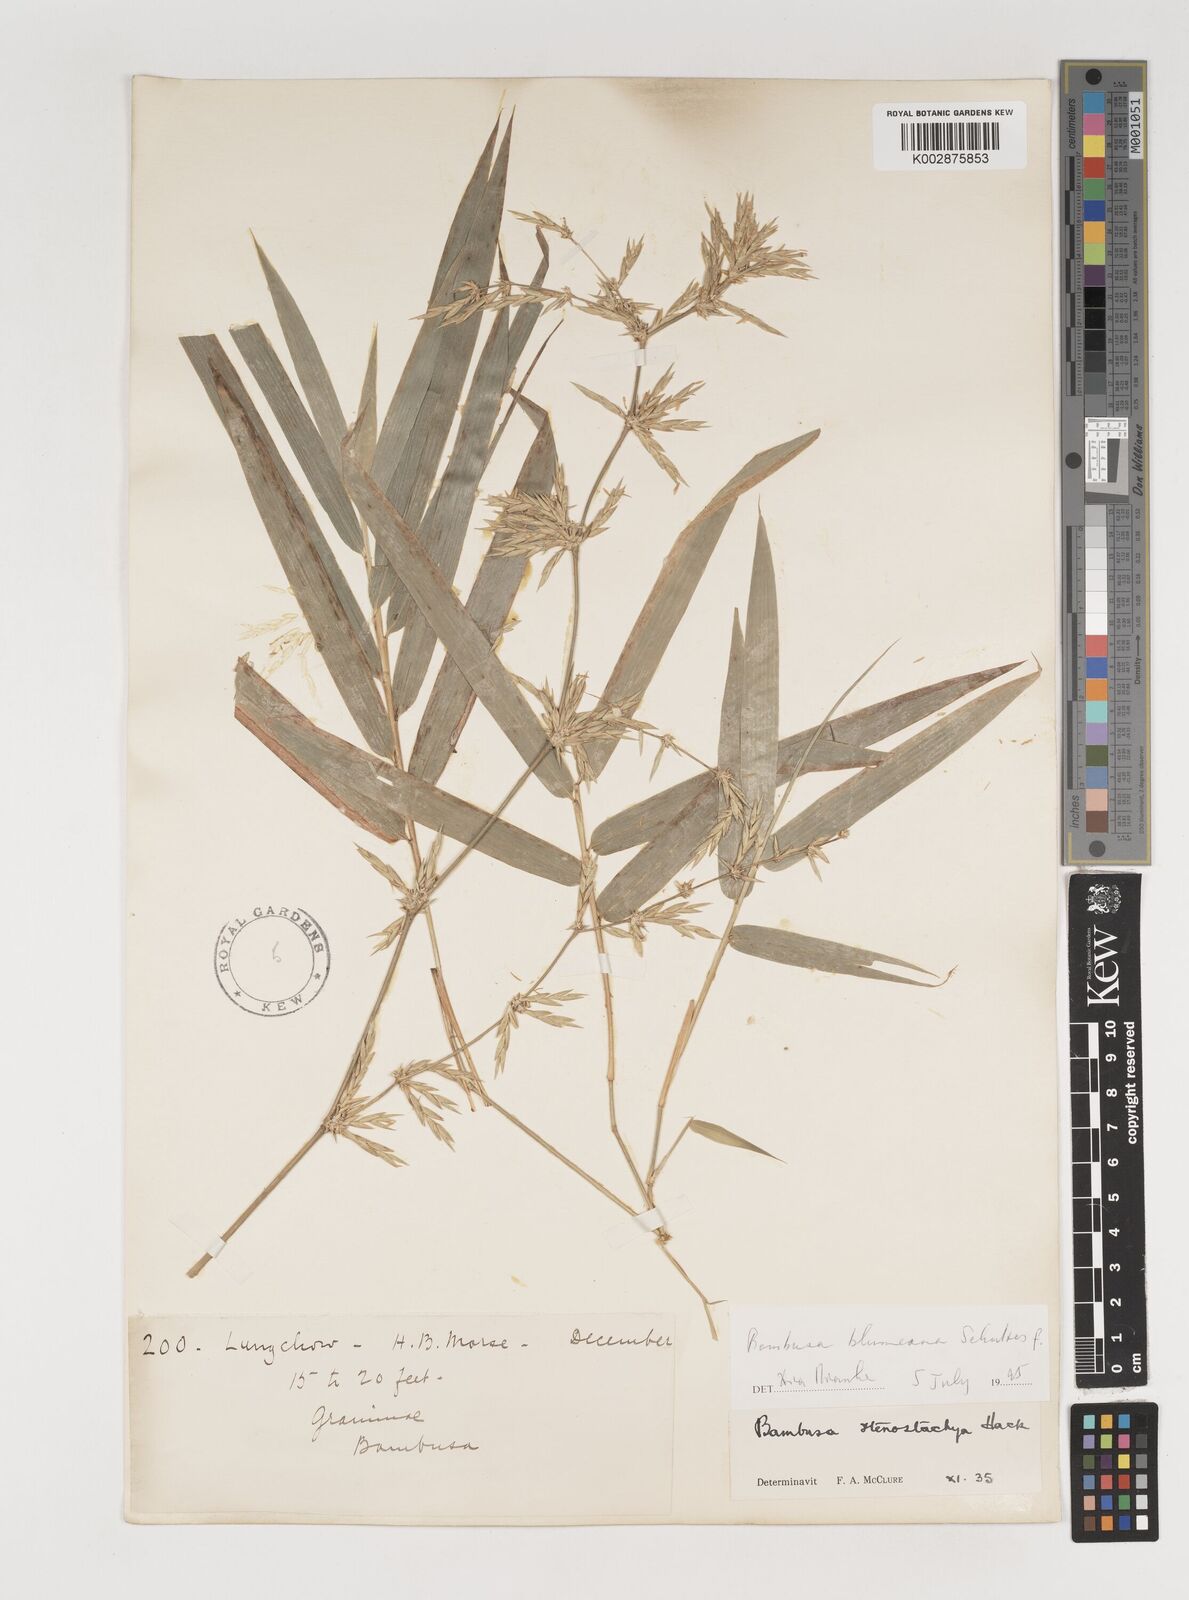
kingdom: Plantae
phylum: Tracheophyta
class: Liliopsida
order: Poales
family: Poaceae
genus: Bambusa
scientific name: Bambusa spinosa
